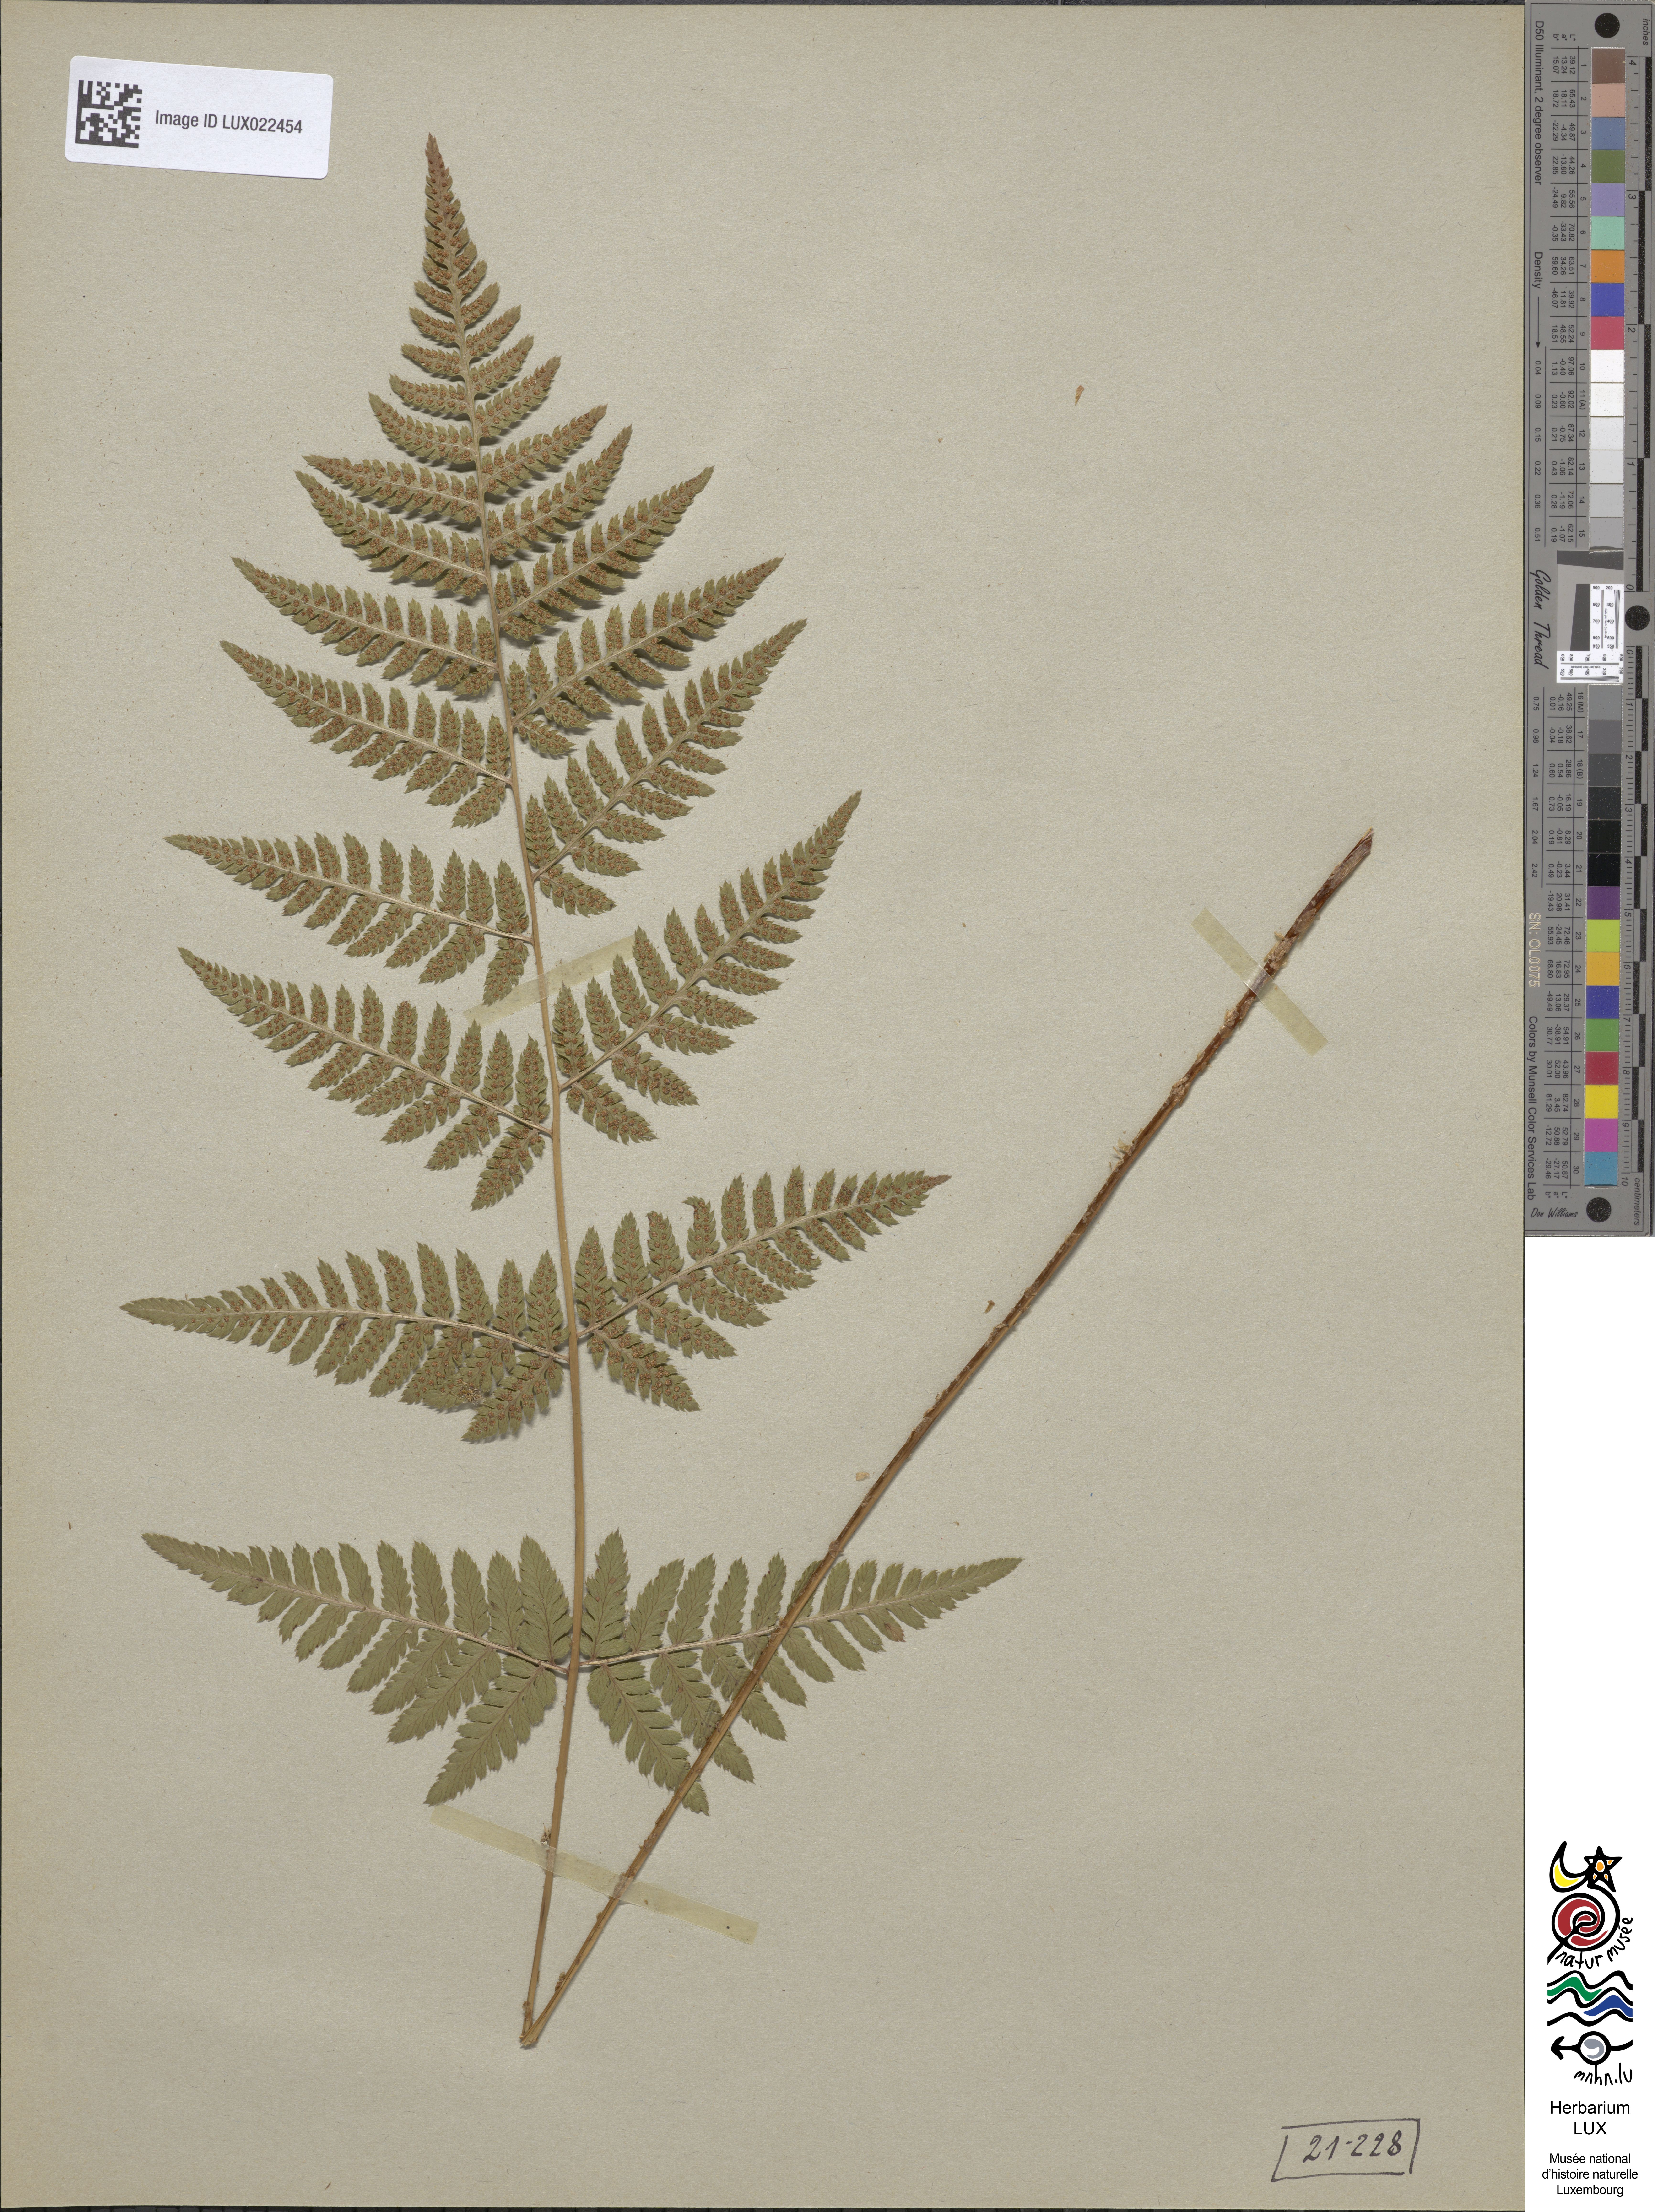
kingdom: Plantae
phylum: Tracheophyta
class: Polypodiopsida
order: Polypodiales
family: Dryopteridaceae
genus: Dryopteris
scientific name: Dryopteris carthusiana
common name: Narrow buckler-fern
